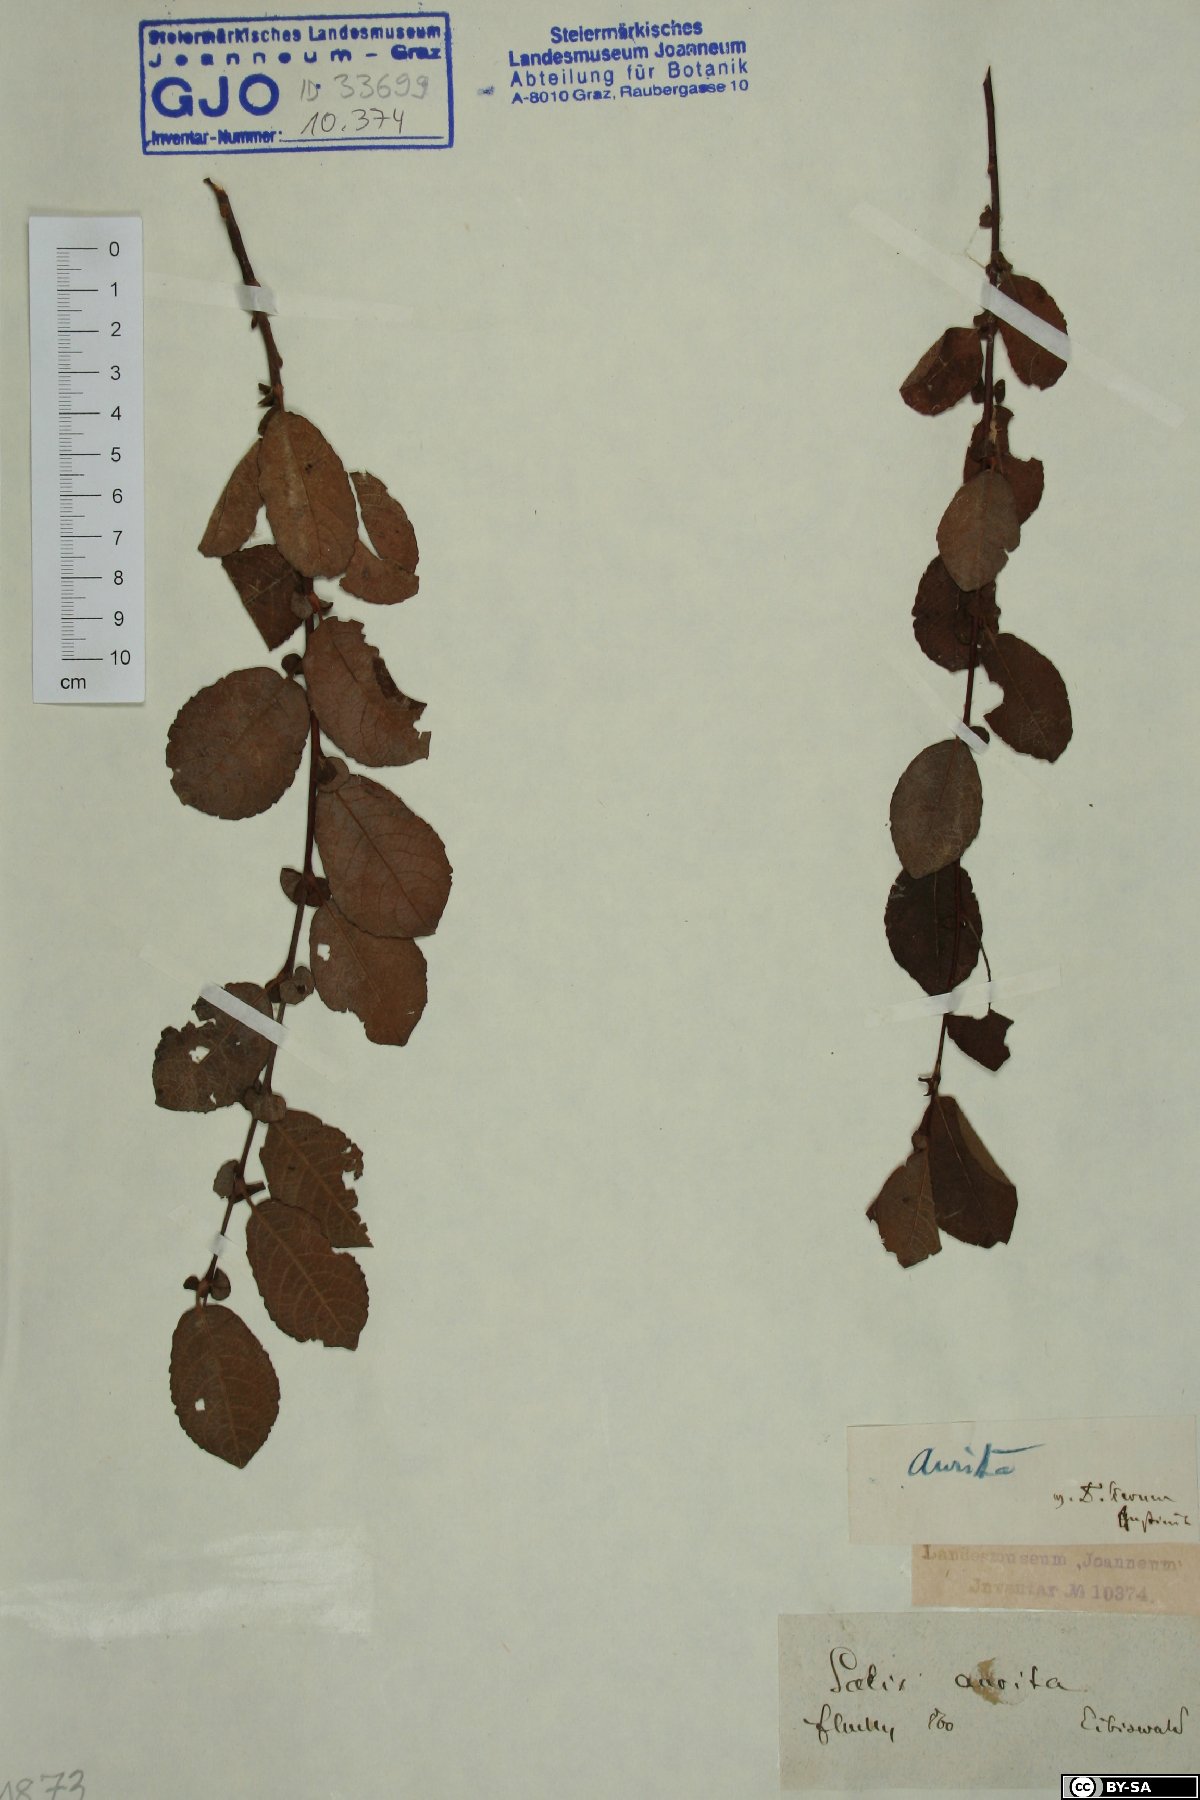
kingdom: Plantae
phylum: Tracheophyta
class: Magnoliopsida
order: Malpighiales
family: Salicaceae
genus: Salix
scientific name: Salix aurita
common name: Eared willow
